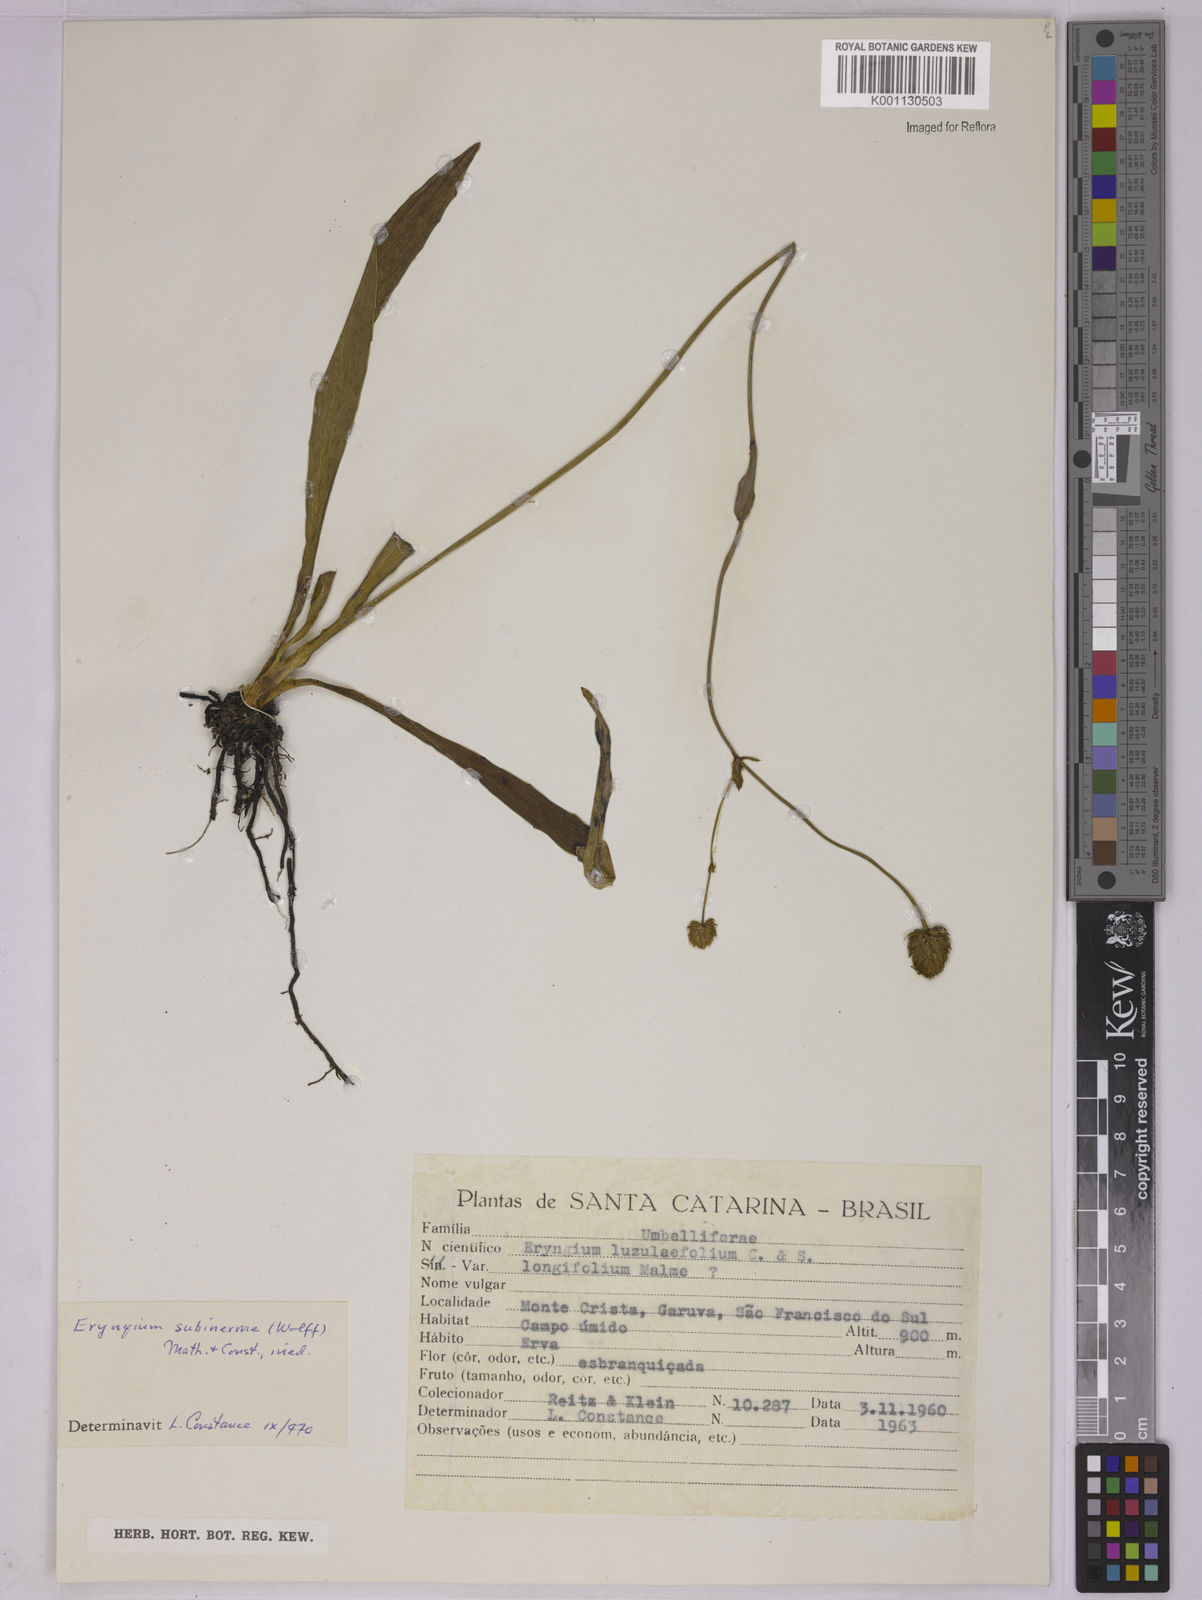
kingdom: Plantae
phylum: Tracheophyta
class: Magnoliopsida
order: Apiales
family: Apiaceae
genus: Eryngium
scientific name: Eryngium aquaticum
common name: Water eryngo
